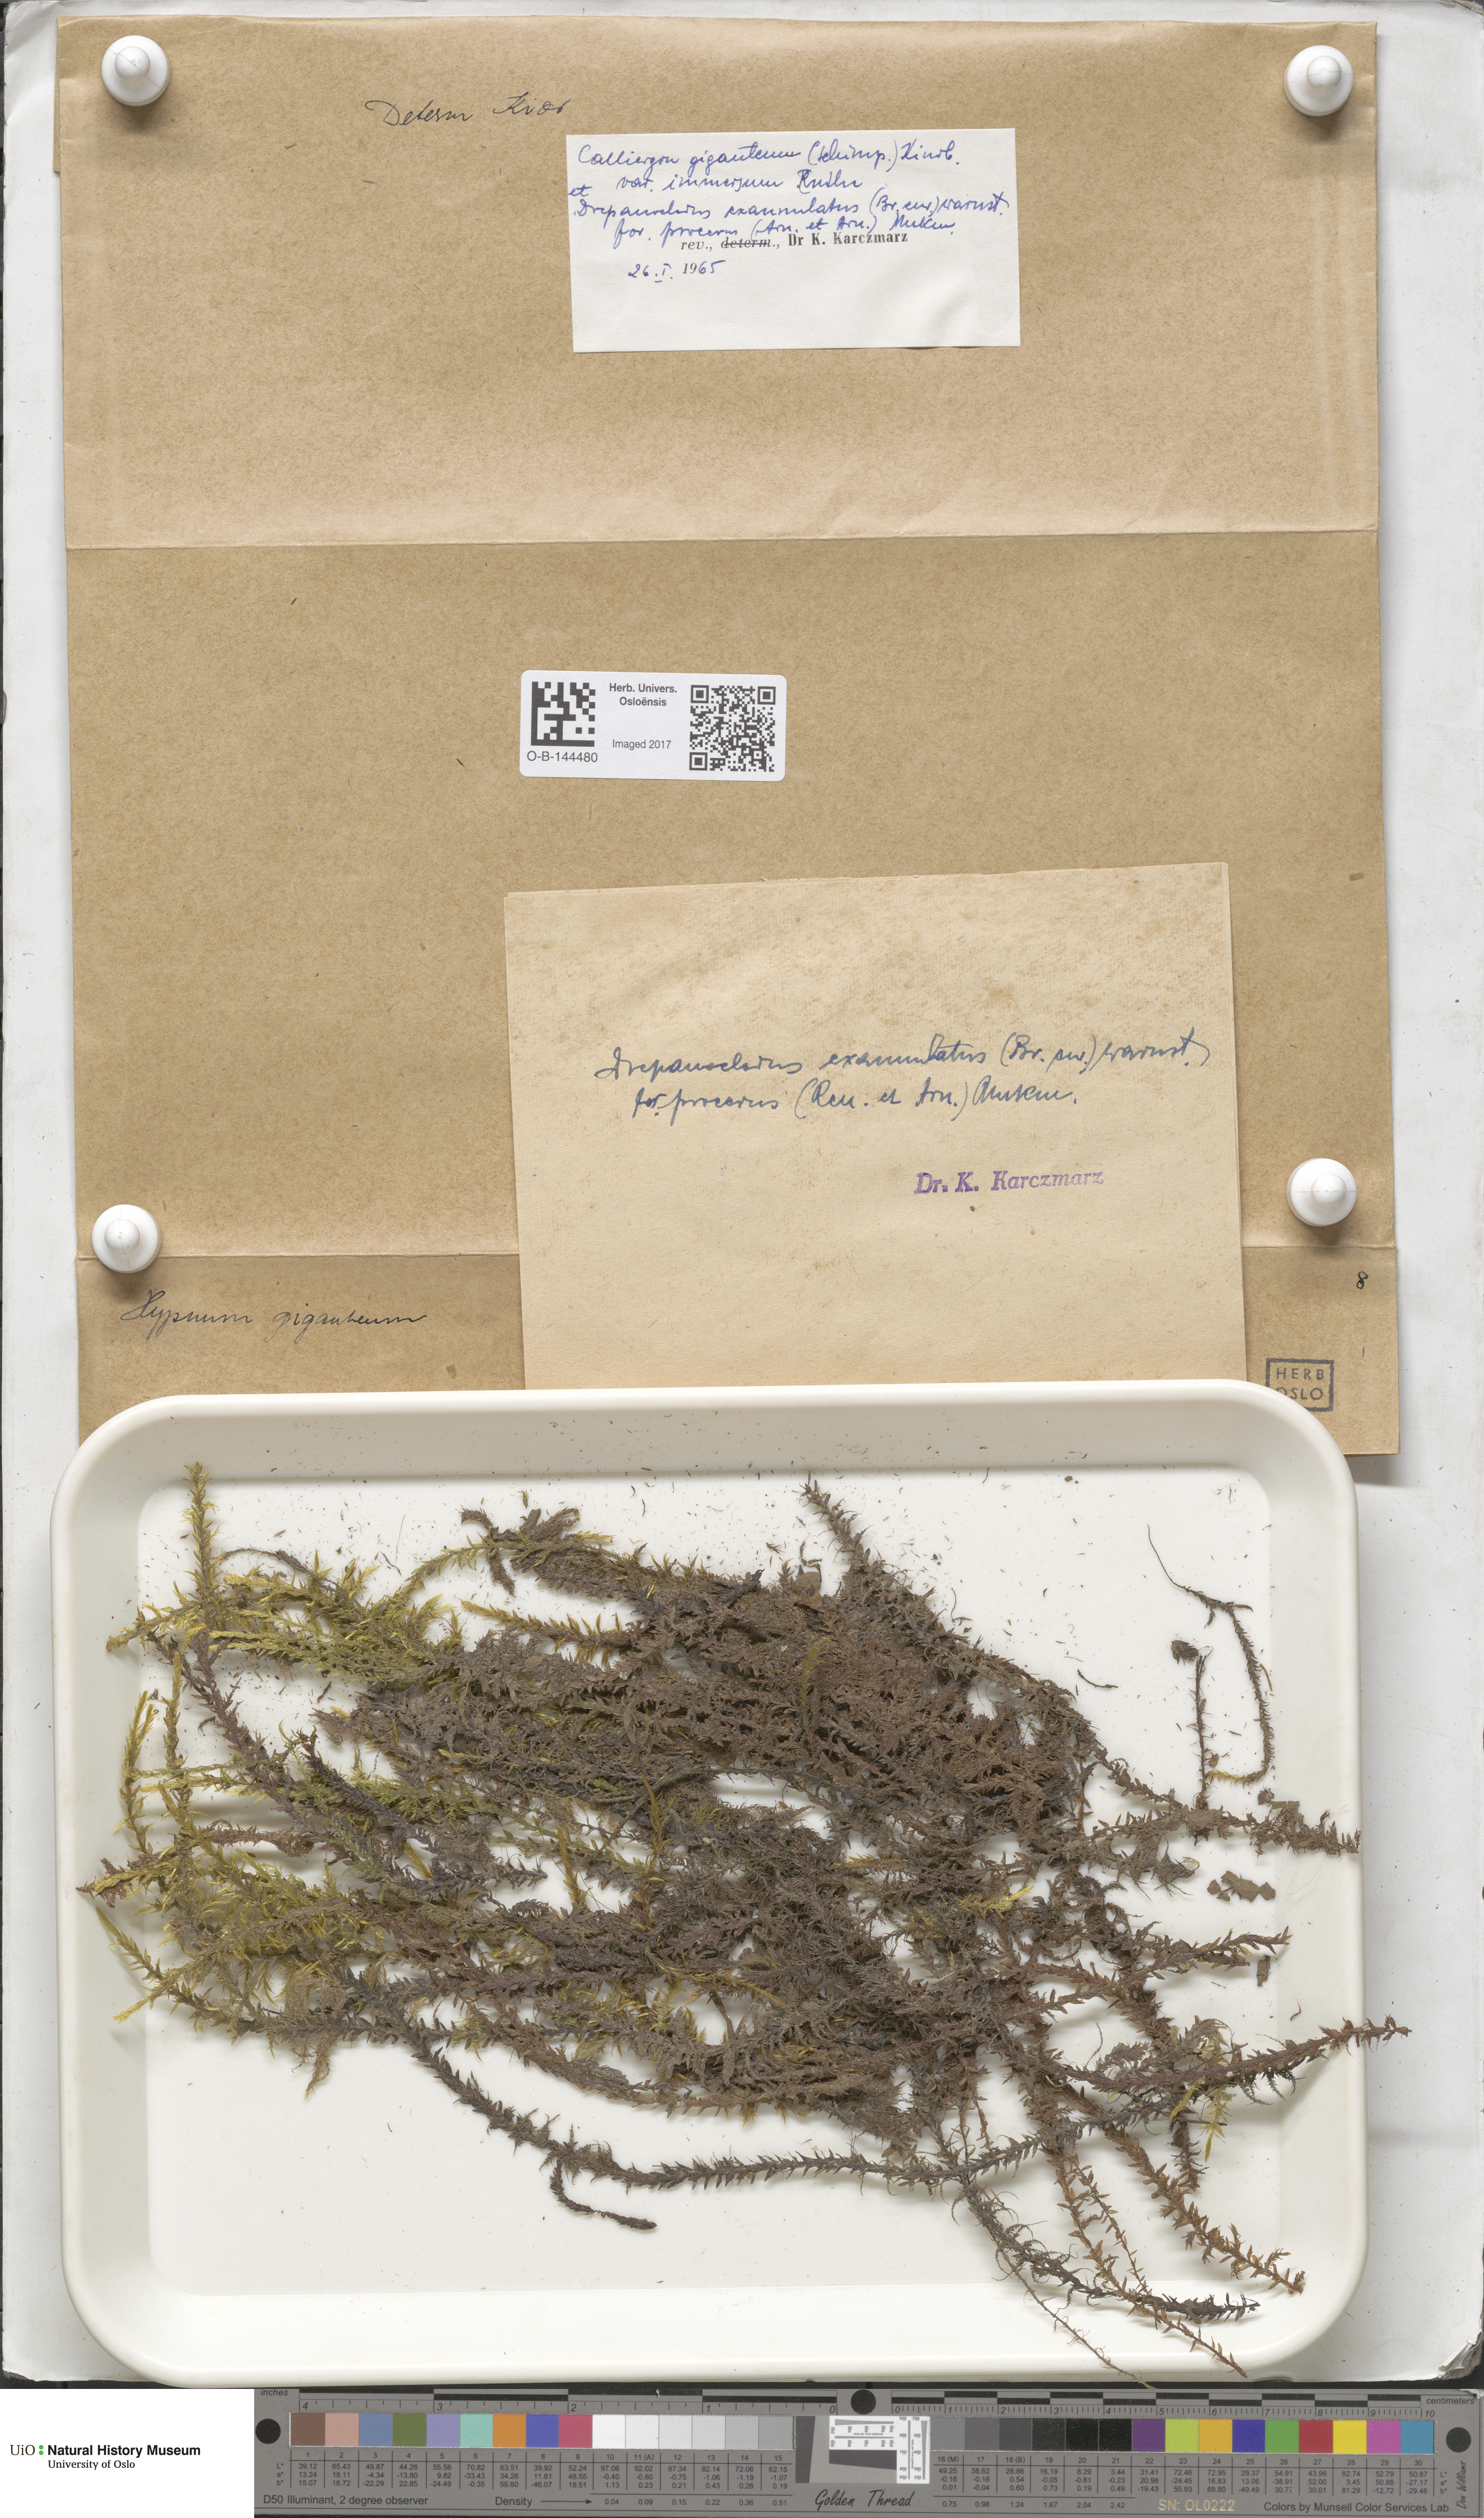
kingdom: Plantae
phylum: Bryophyta
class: Bryopsida
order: Hypnales
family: Calliergonaceae
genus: Calliergon
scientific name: Calliergon giganteum
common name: Giant spear moss
